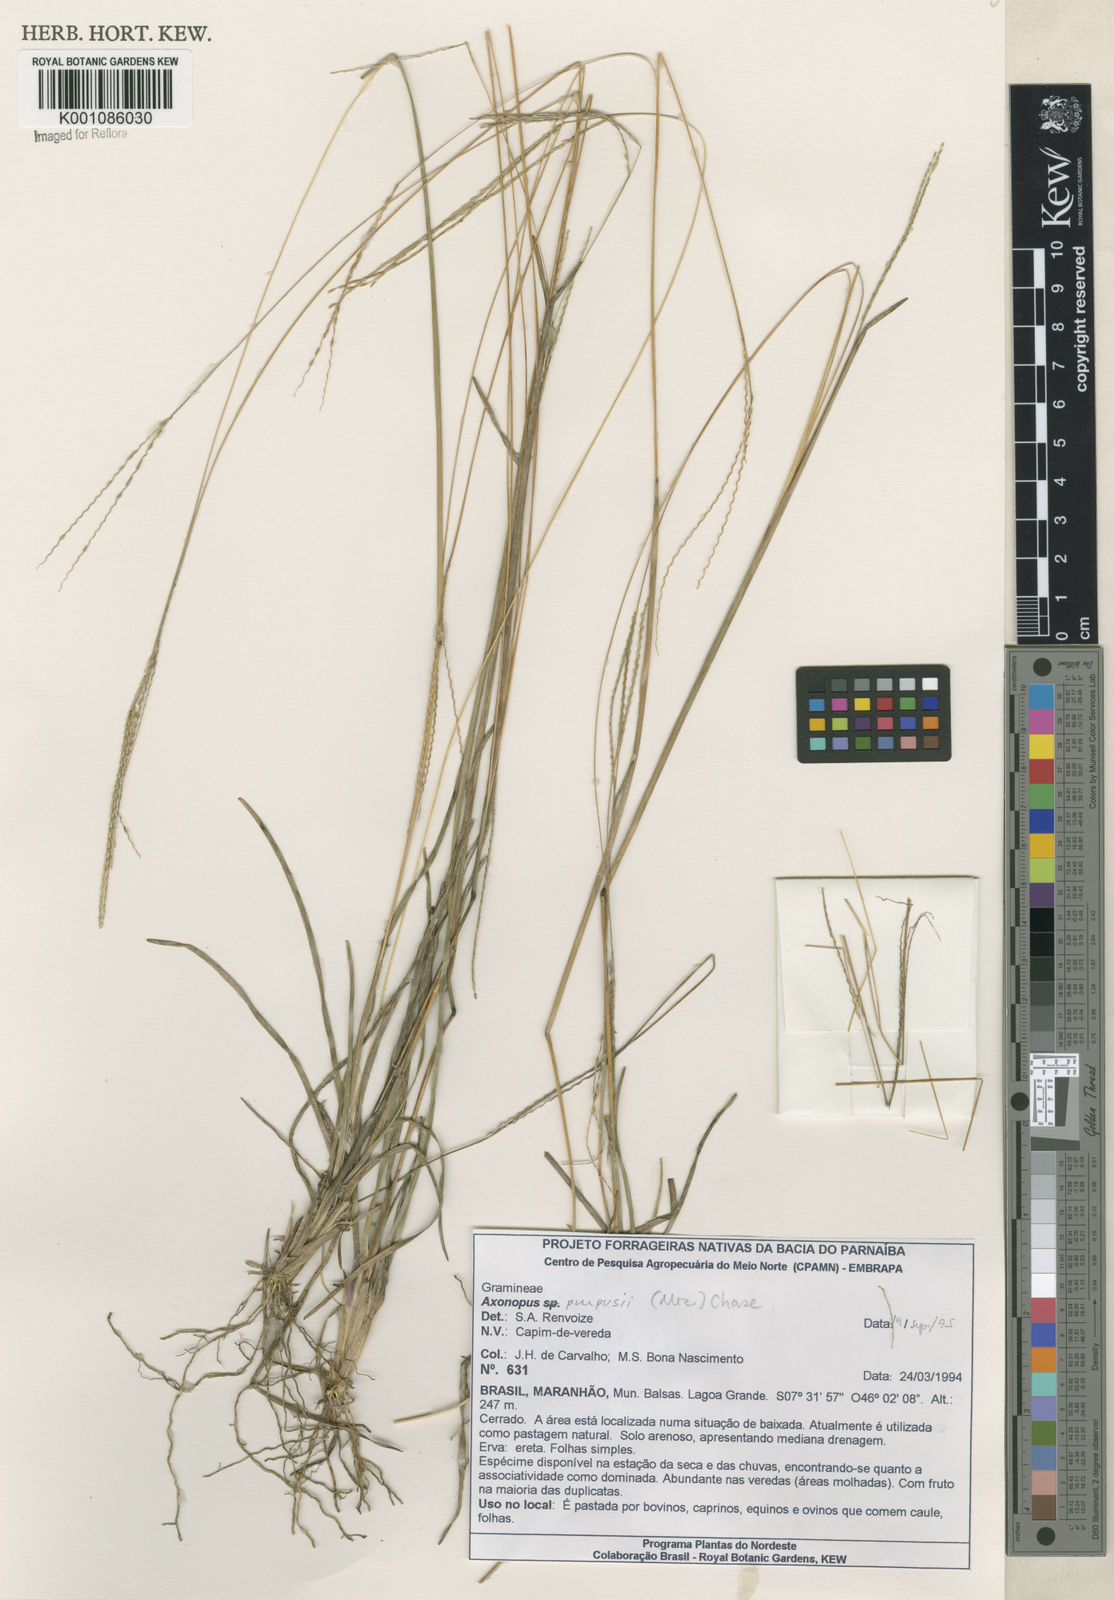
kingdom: Plantae
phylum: Tracheophyta
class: Liliopsida
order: Poales
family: Poaceae
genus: Axonopus
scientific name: Axonopus purpusii
